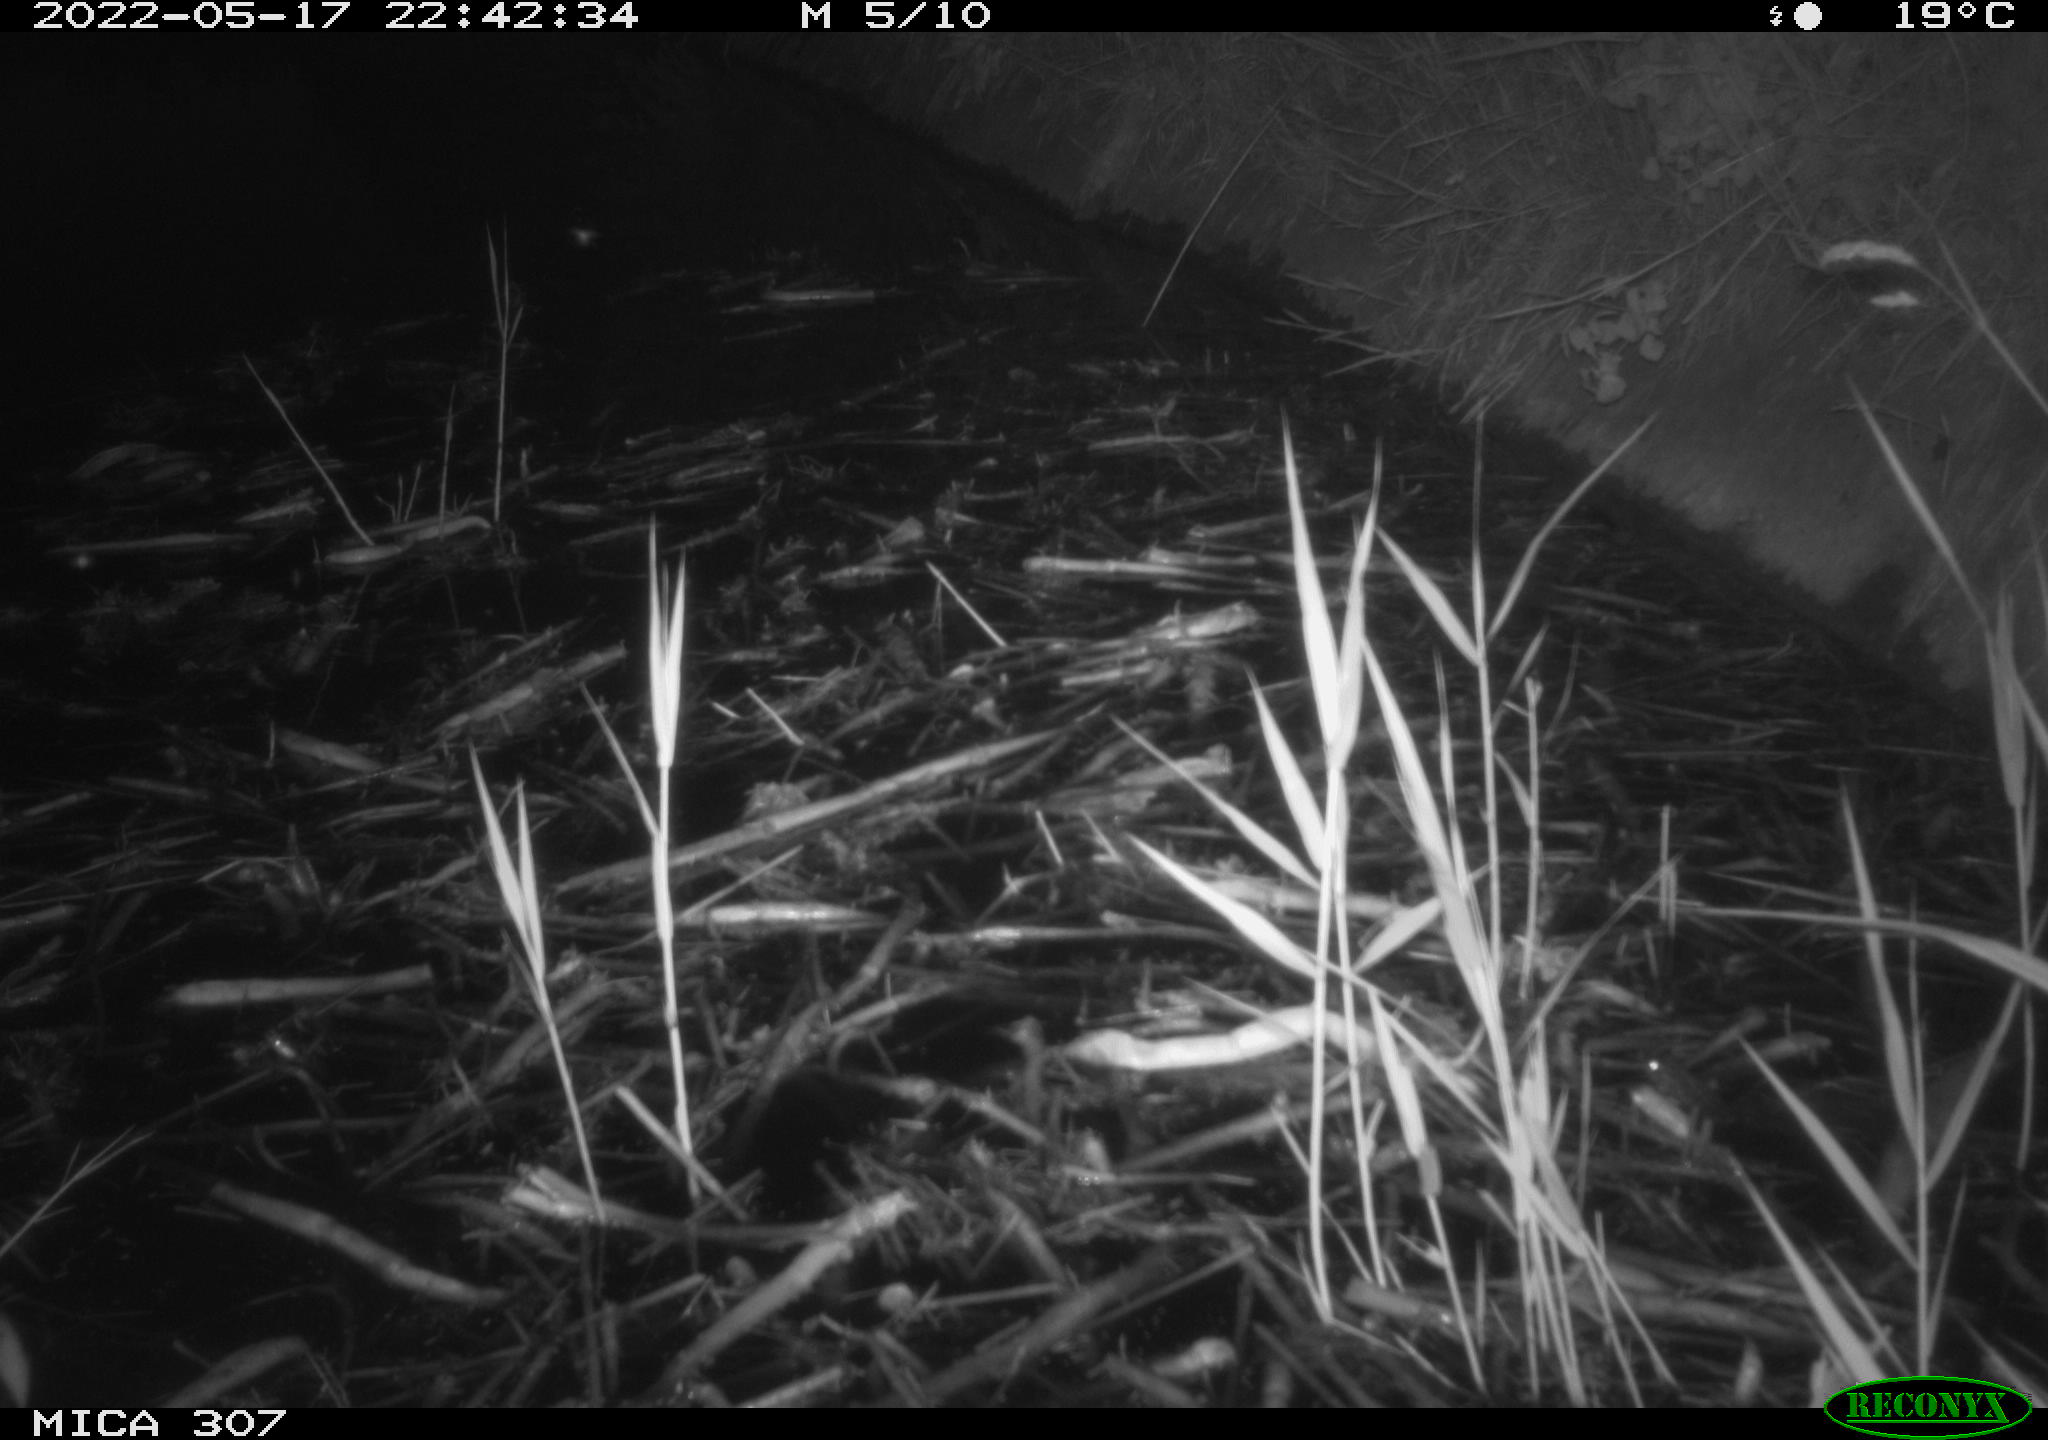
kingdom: Animalia
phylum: Chordata
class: Aves
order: Anseriformes
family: Anatidae
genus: Anas
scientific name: Anas platyrhynchos
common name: Mallard
